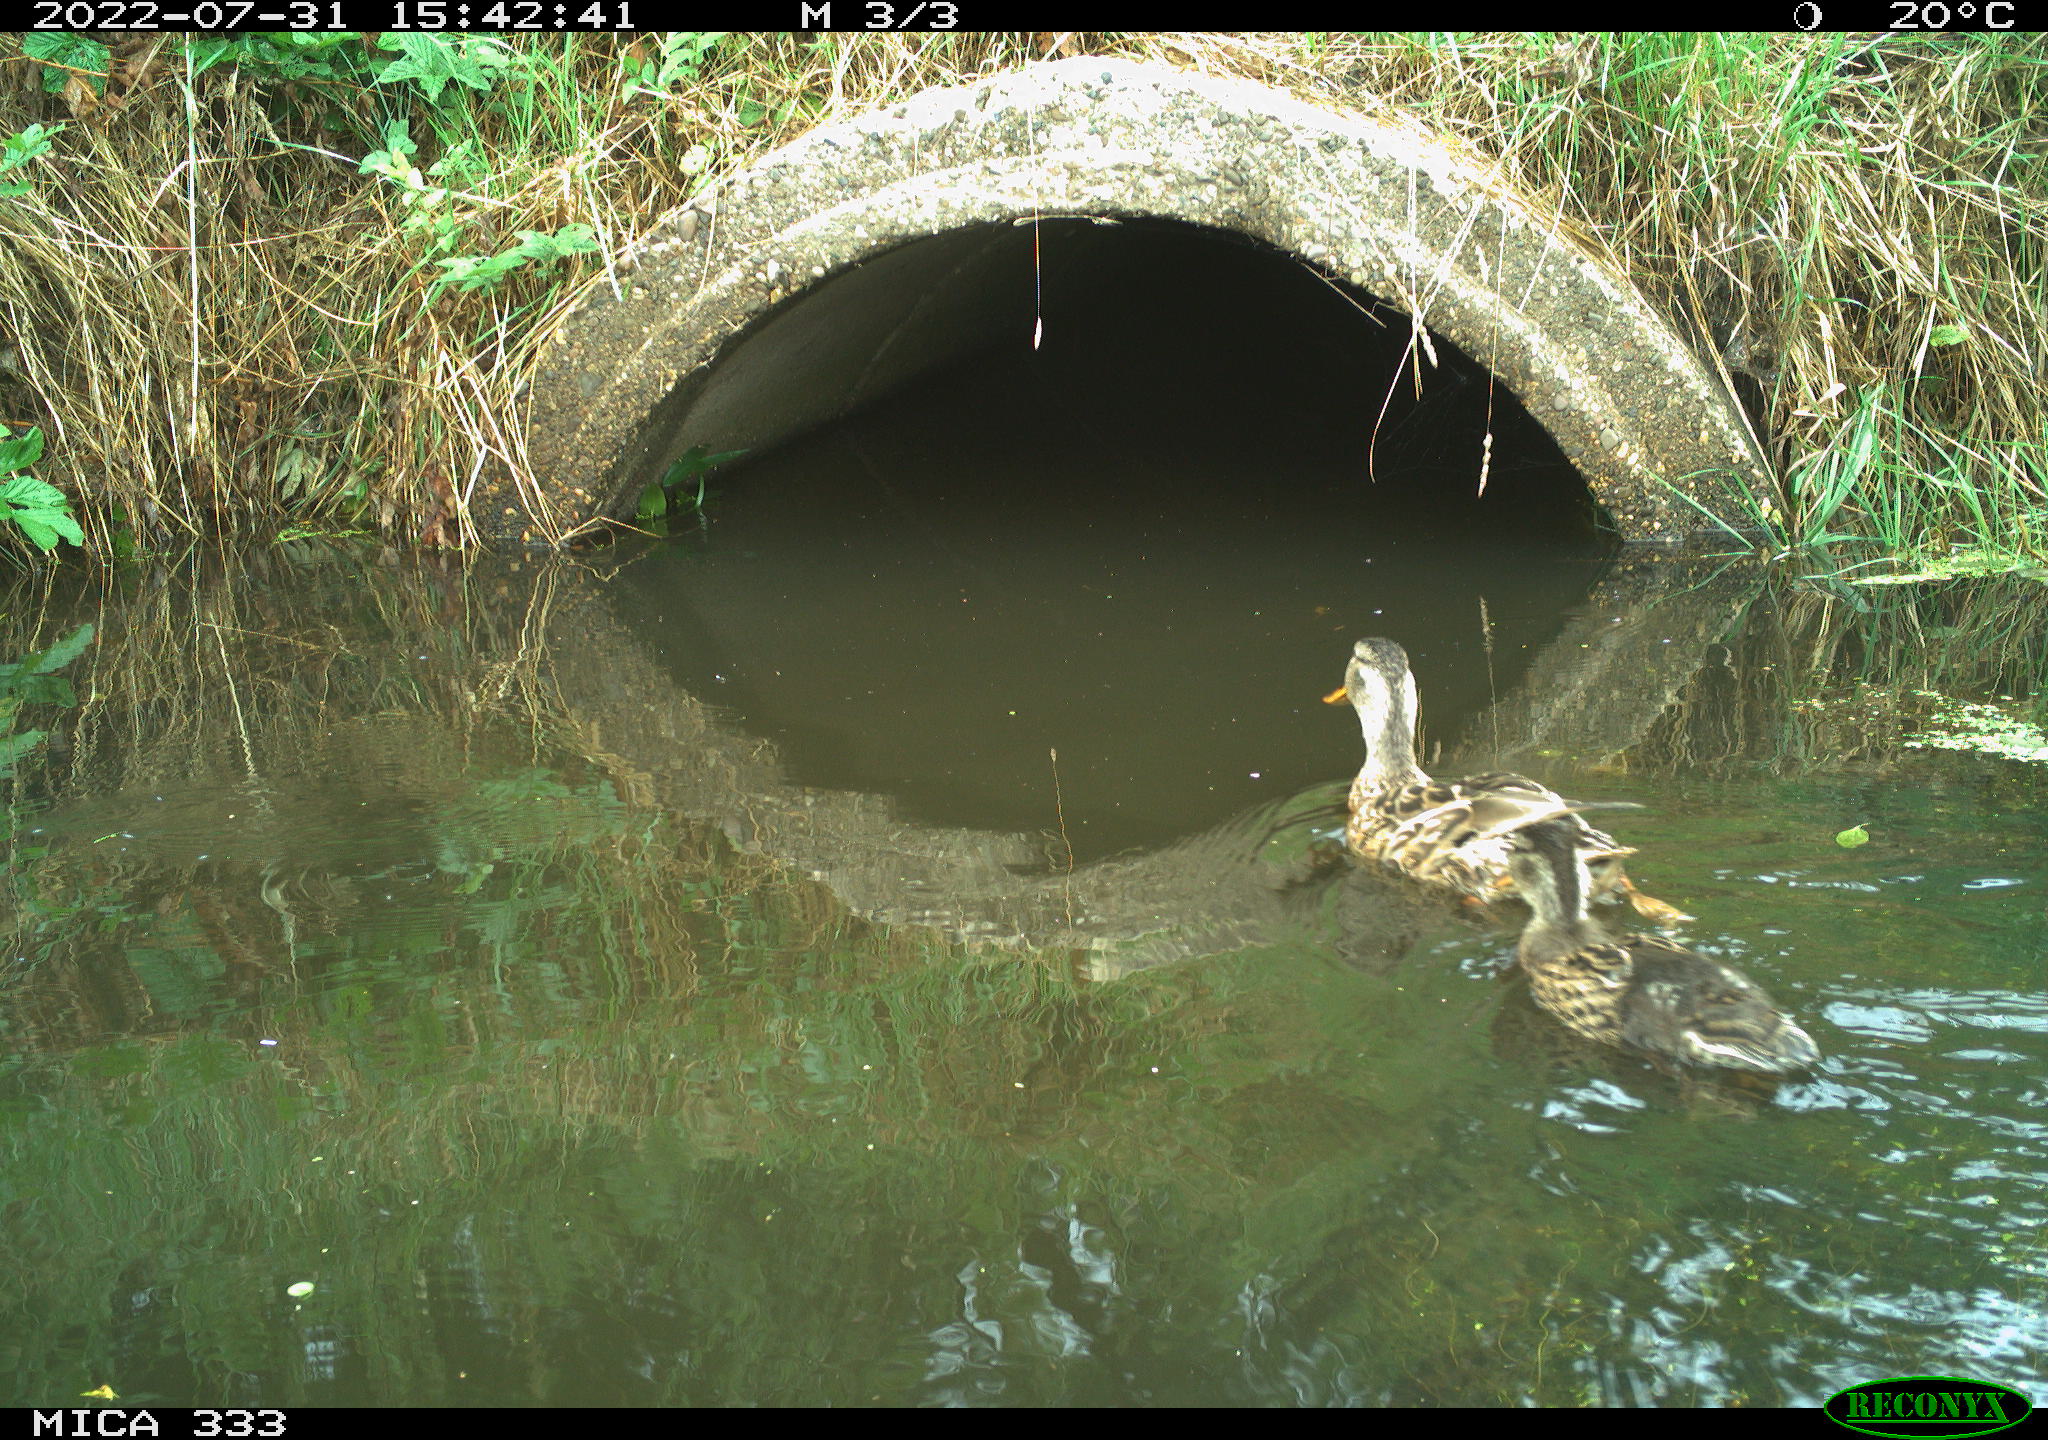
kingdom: Animalia
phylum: Chordata
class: Aves
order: Anseriformes
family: Anatidae
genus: Anas
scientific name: Anas platyrhynchos
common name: Mallard
